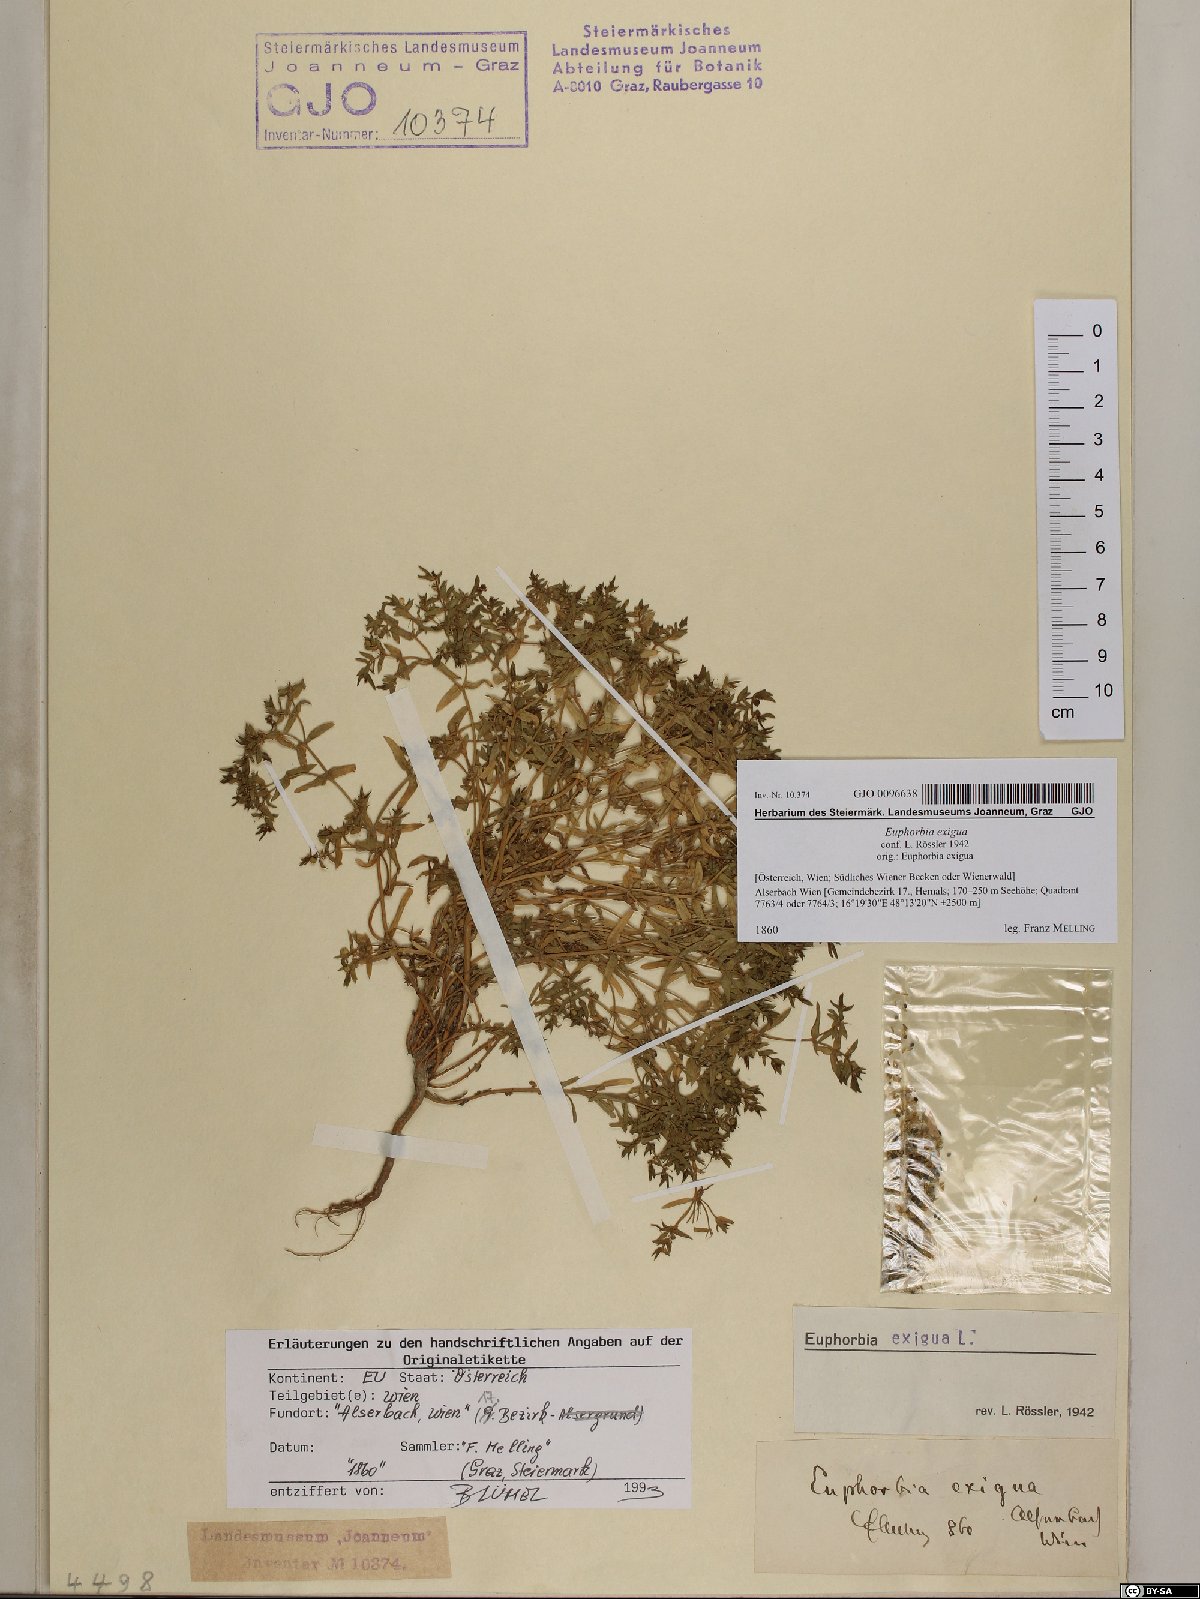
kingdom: Plantae
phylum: Tracheophyta
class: Magnoliopsida
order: Malpighiales
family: Euphorbiaceae
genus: Euphorbia
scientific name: Euphorbia exigua
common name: Dwarf spurge
